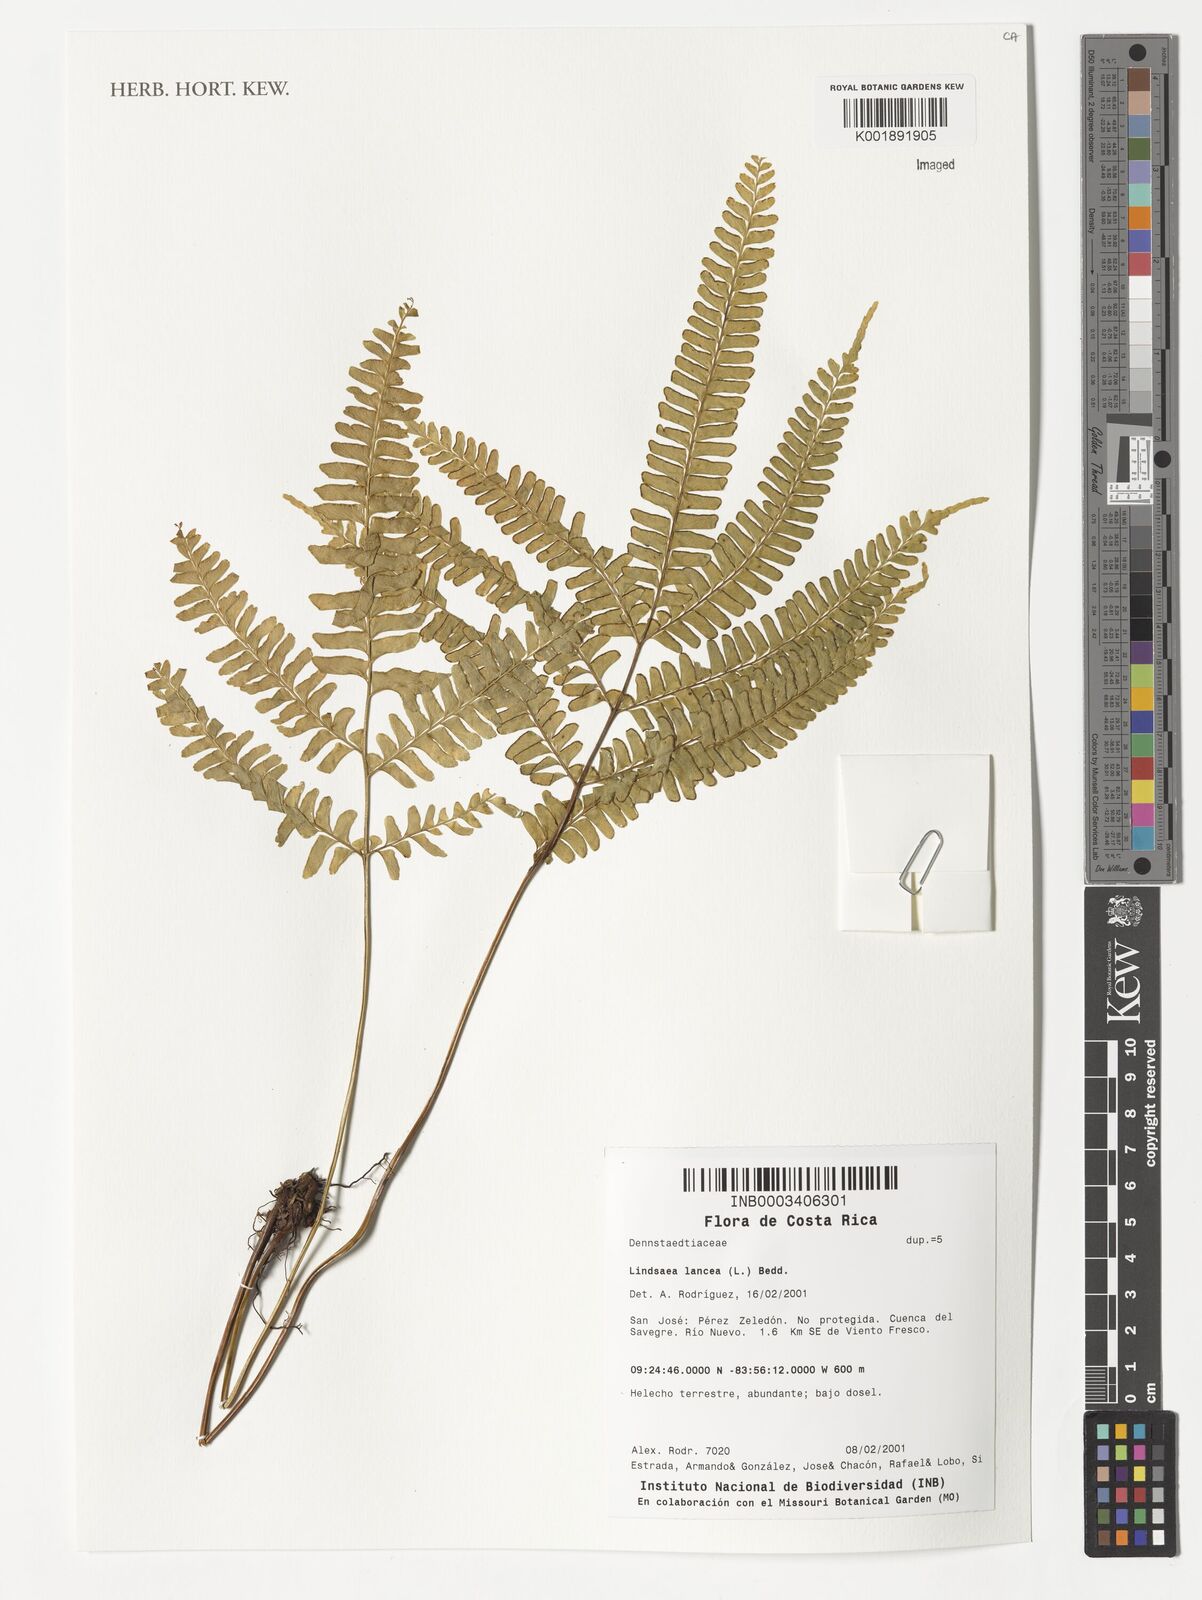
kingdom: Plantae
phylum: Tracheophyta
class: Polypodiopsida
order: Polypodiales
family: Lindsaeaceae
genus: Lindsaea
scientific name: Lindsaea lancea
